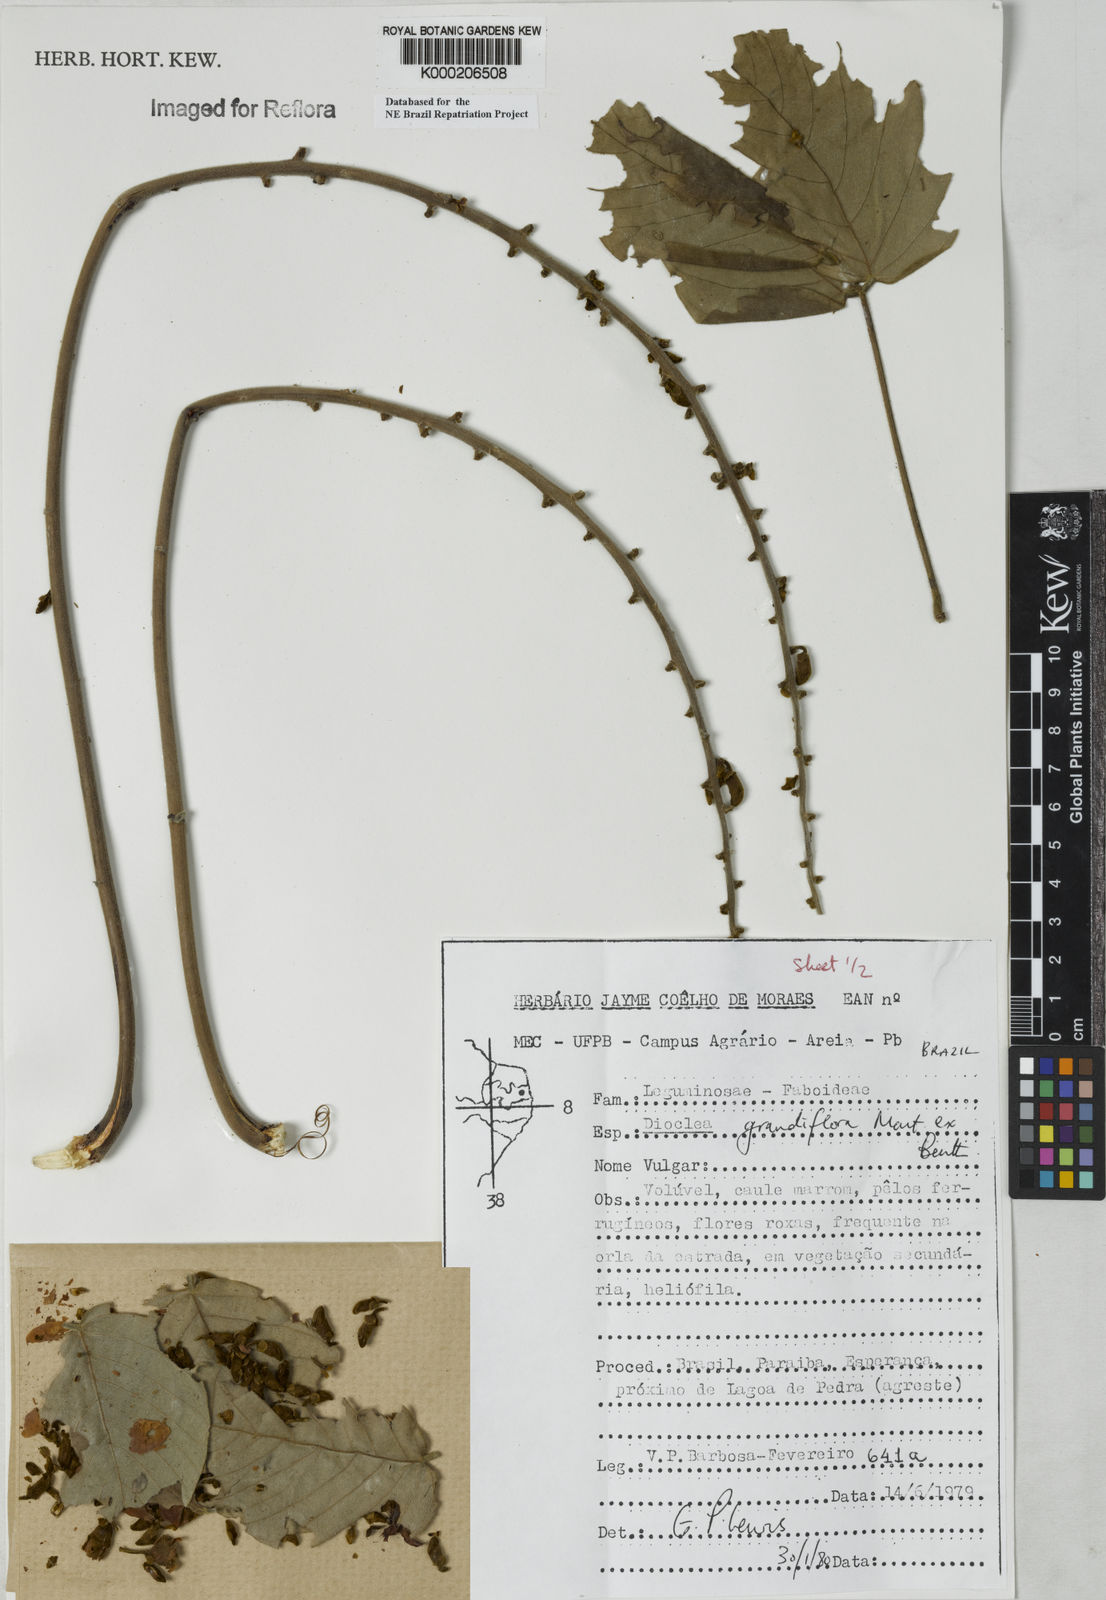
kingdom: Plantae
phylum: Tracheophyta
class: Magnoliopsida
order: Fabales
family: Fabaceae
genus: Macropsychanthus
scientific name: Macropsychanthus grandiflorus
